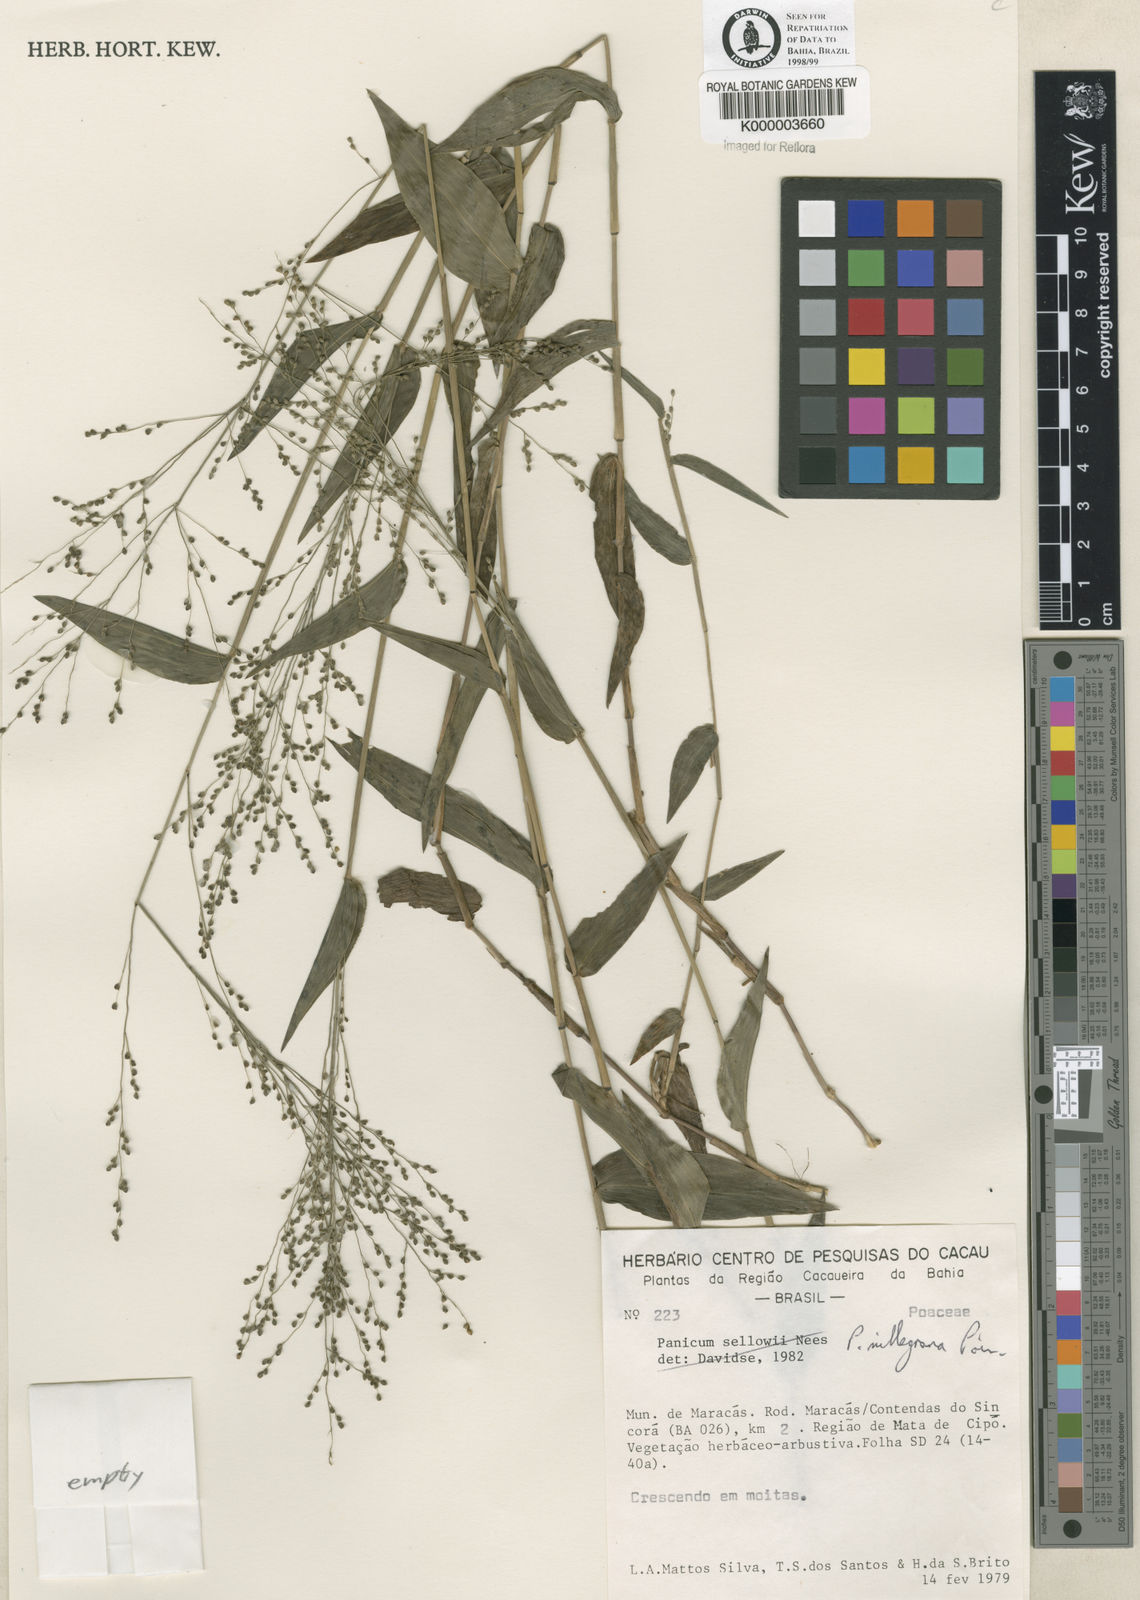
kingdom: Plantae
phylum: Tracheophyta
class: Liliopsida
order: Poales
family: Poaceae
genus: Panicum
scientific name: Panicum millegrana
